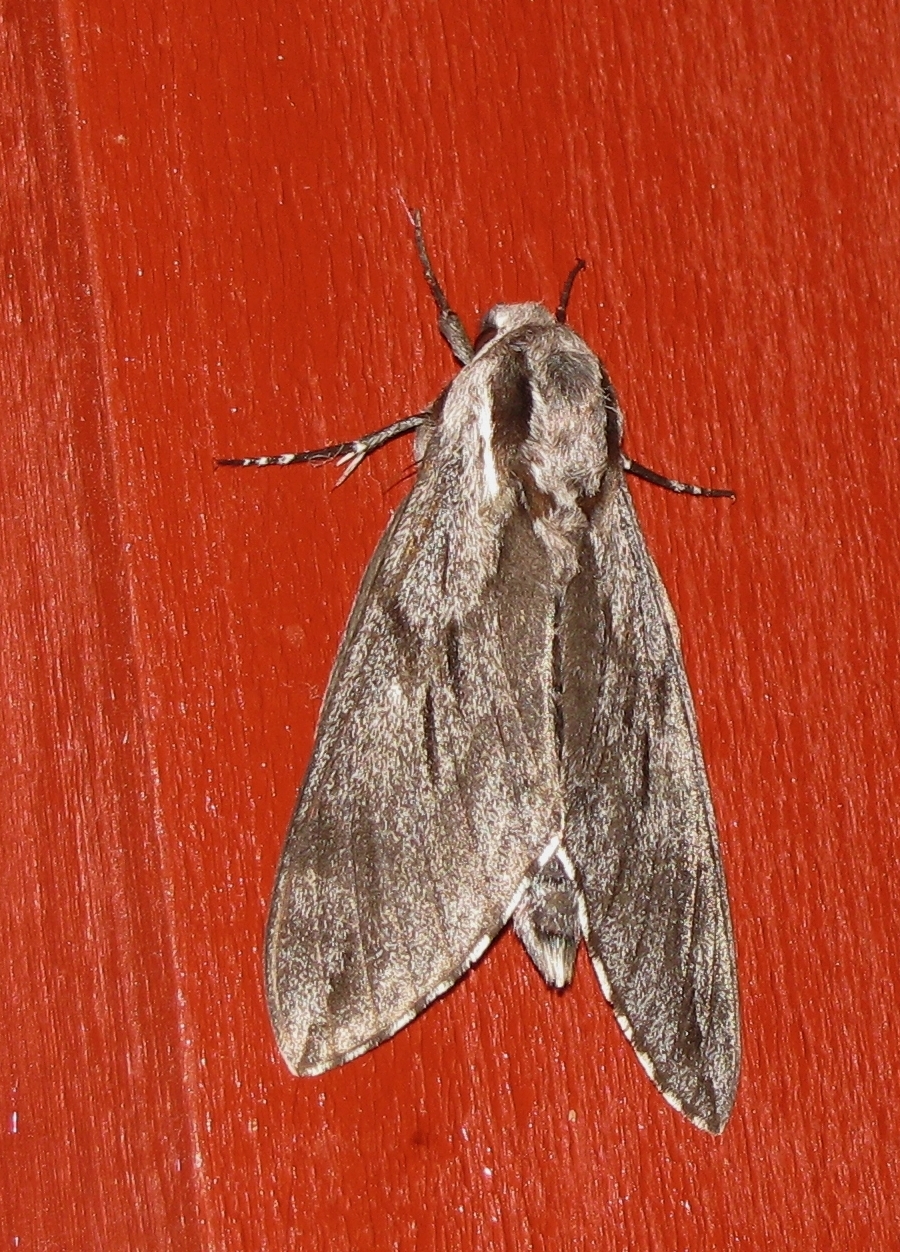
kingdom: Animalia
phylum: Arthropoda
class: Insecta
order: Lepidoptera
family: Sphingidae
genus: Sphinx
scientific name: Sphinx pinastri
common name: Pine hawk-moth
